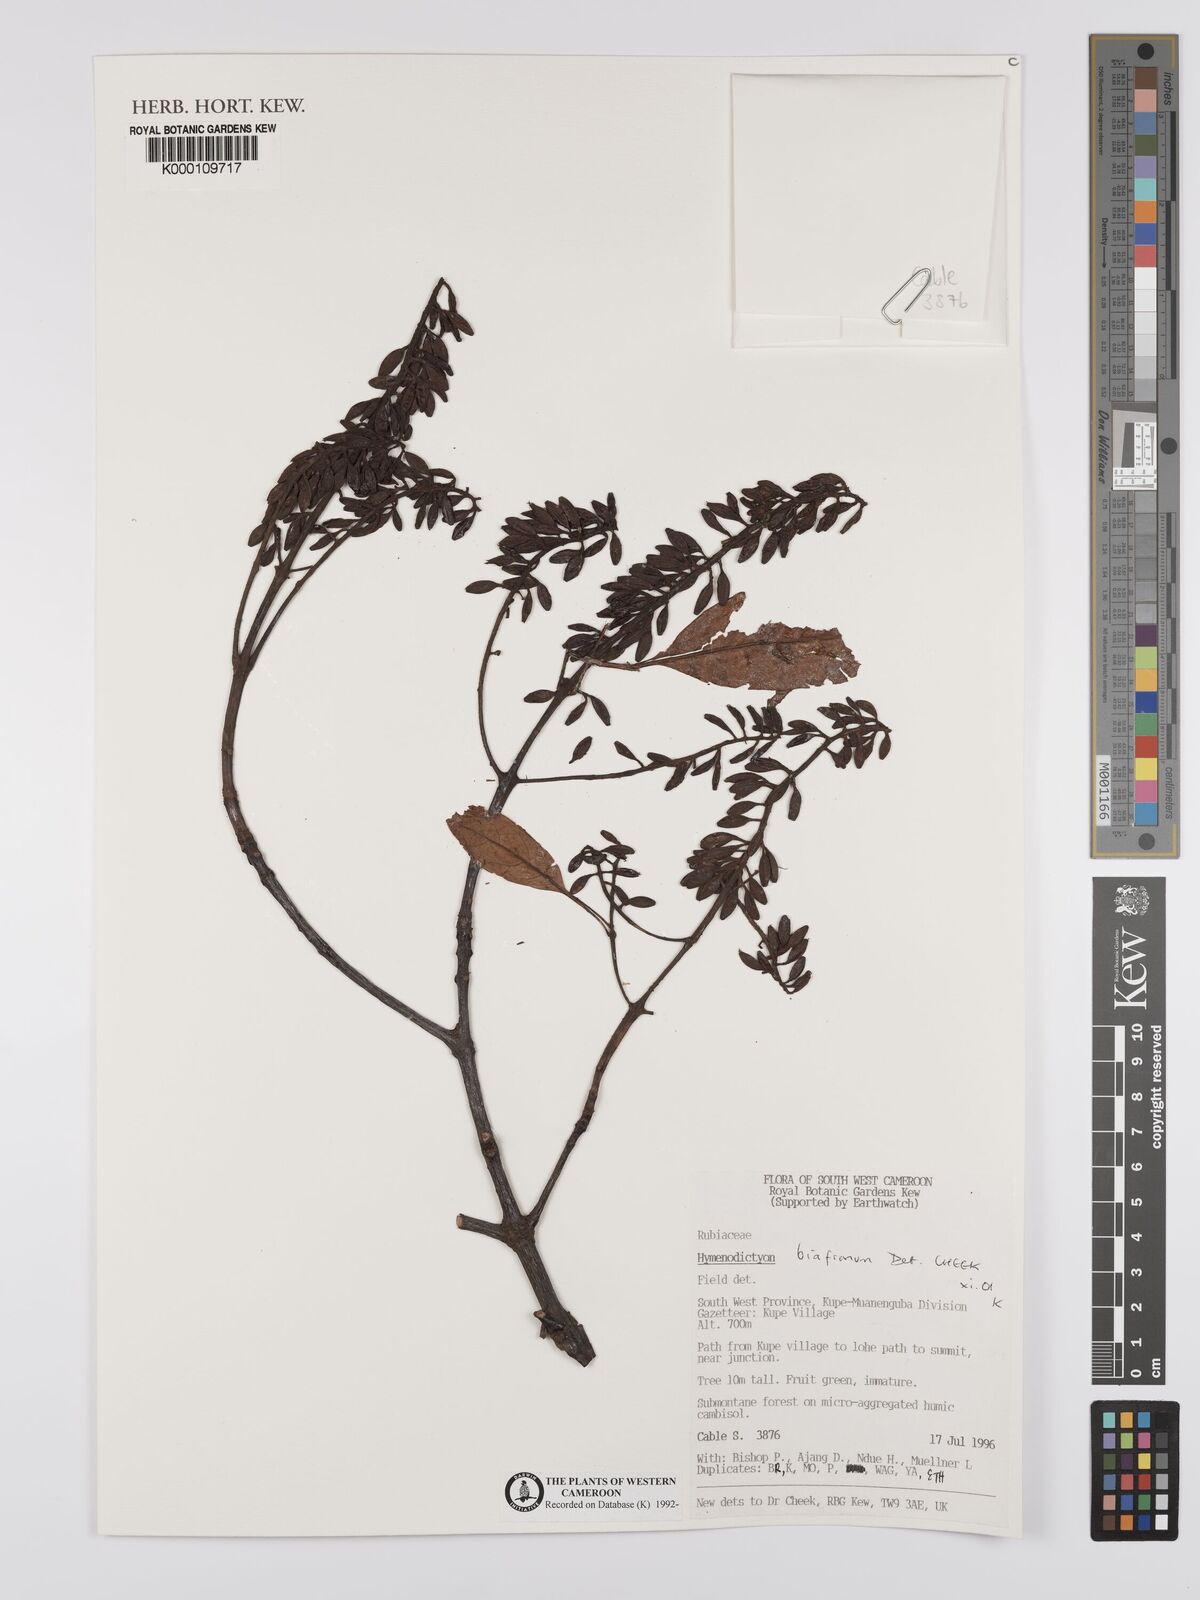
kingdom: Plantae
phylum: Tracheophyta
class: Magnoliopsida
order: Gentianales
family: Rubiaceae
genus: Hymenodictyon
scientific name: Hymenodictyon
